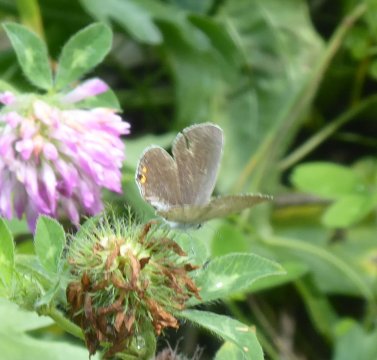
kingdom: Animalia
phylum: Arthropoda
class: Insecta
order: Lepidoptera
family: Lycaenidae
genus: Elkalyce
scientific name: Elkalyce comyntas
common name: Eastern Tailed-Blue
